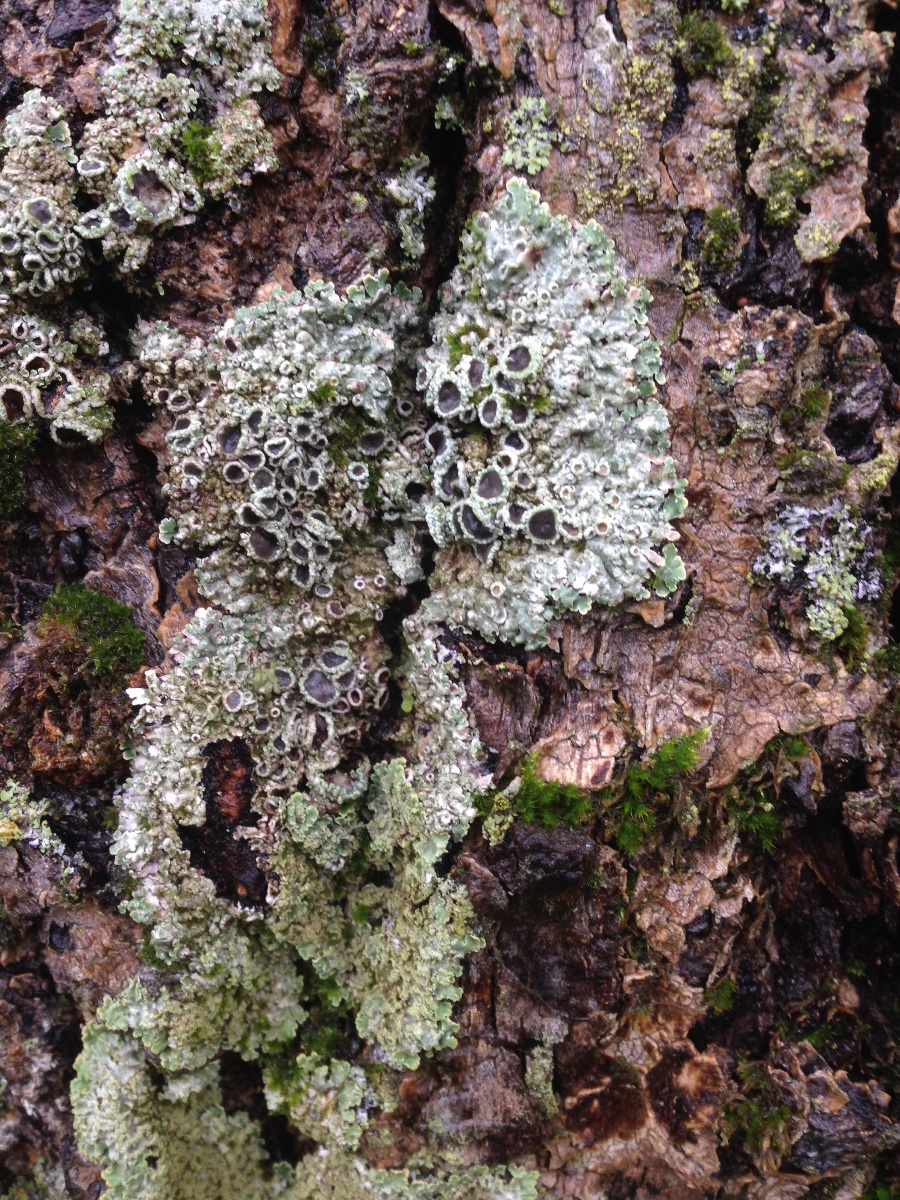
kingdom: Fungi
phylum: Ascomycota
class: Lecanoromycetes
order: Caliciales
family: Physciaceae
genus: Physconia
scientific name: Physconia distorta
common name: pudret dugrosetlav
